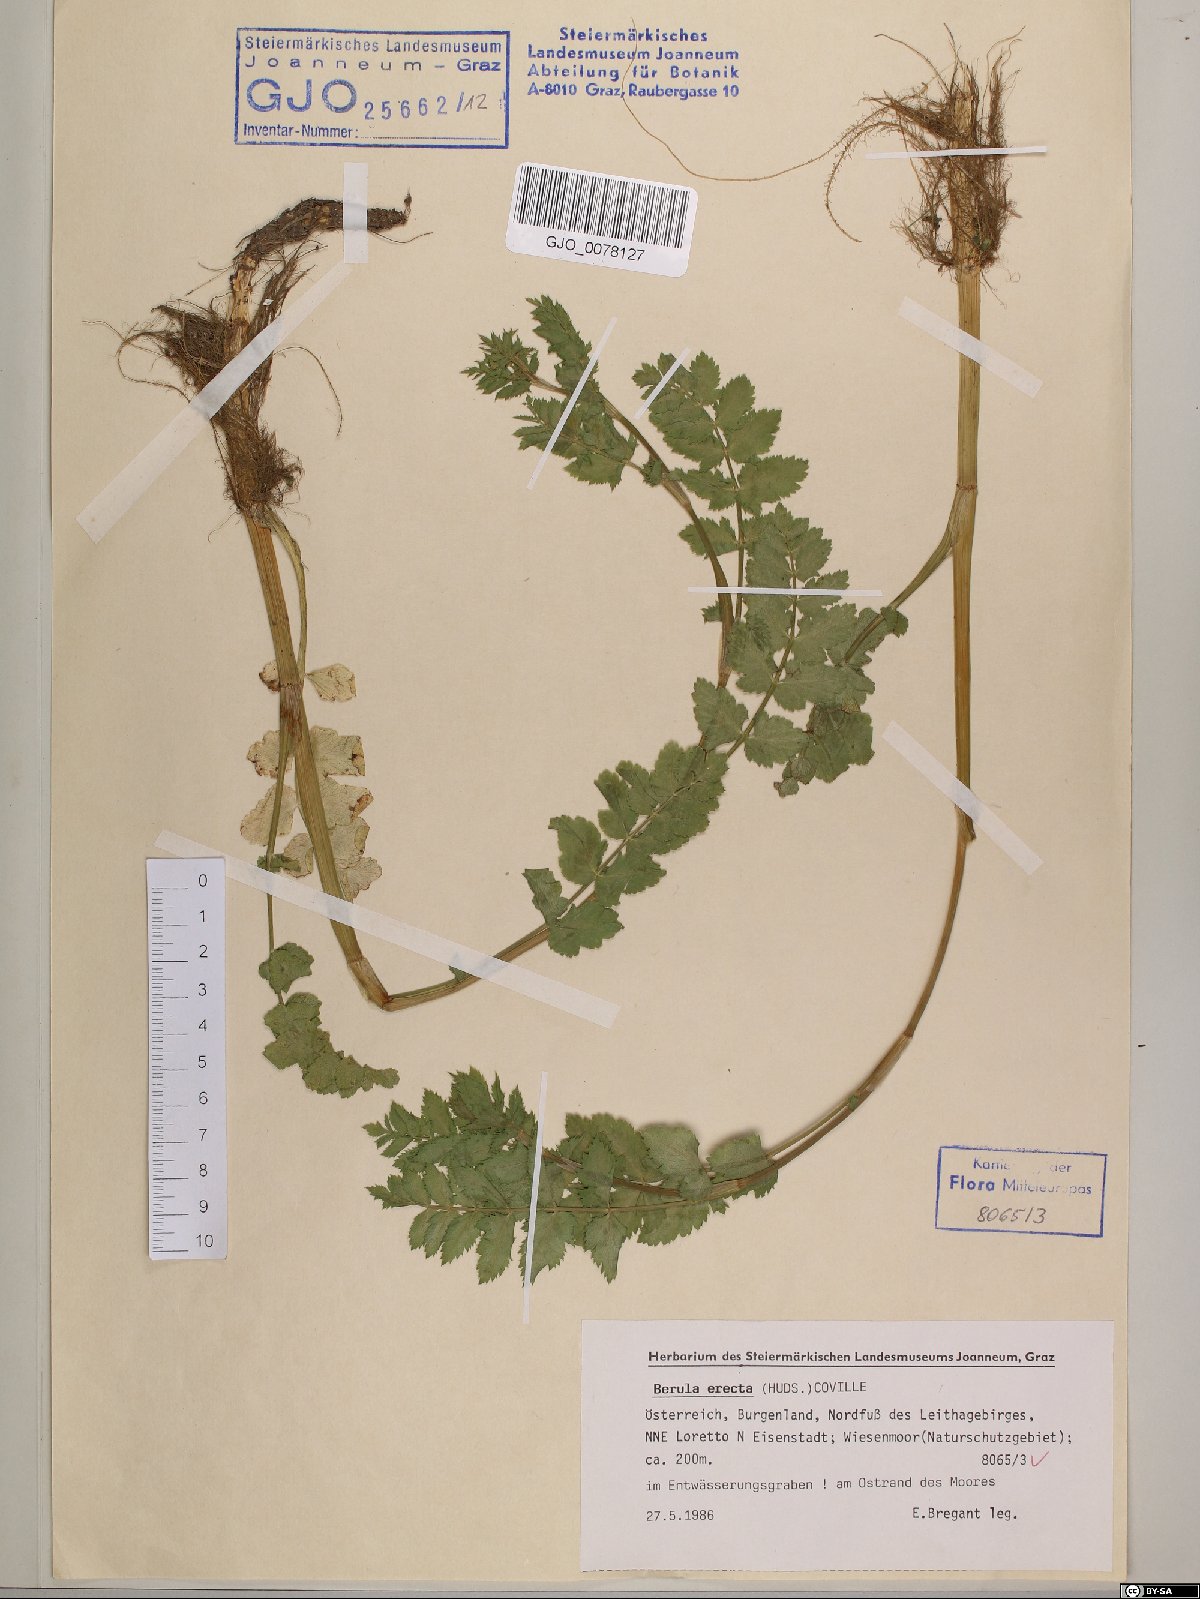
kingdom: Plantae
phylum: Tracheophyta
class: Magnoliopsida
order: Apiales
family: Apiaceae
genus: Berula
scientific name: Berula erecta
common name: Lesser water-parsnip
